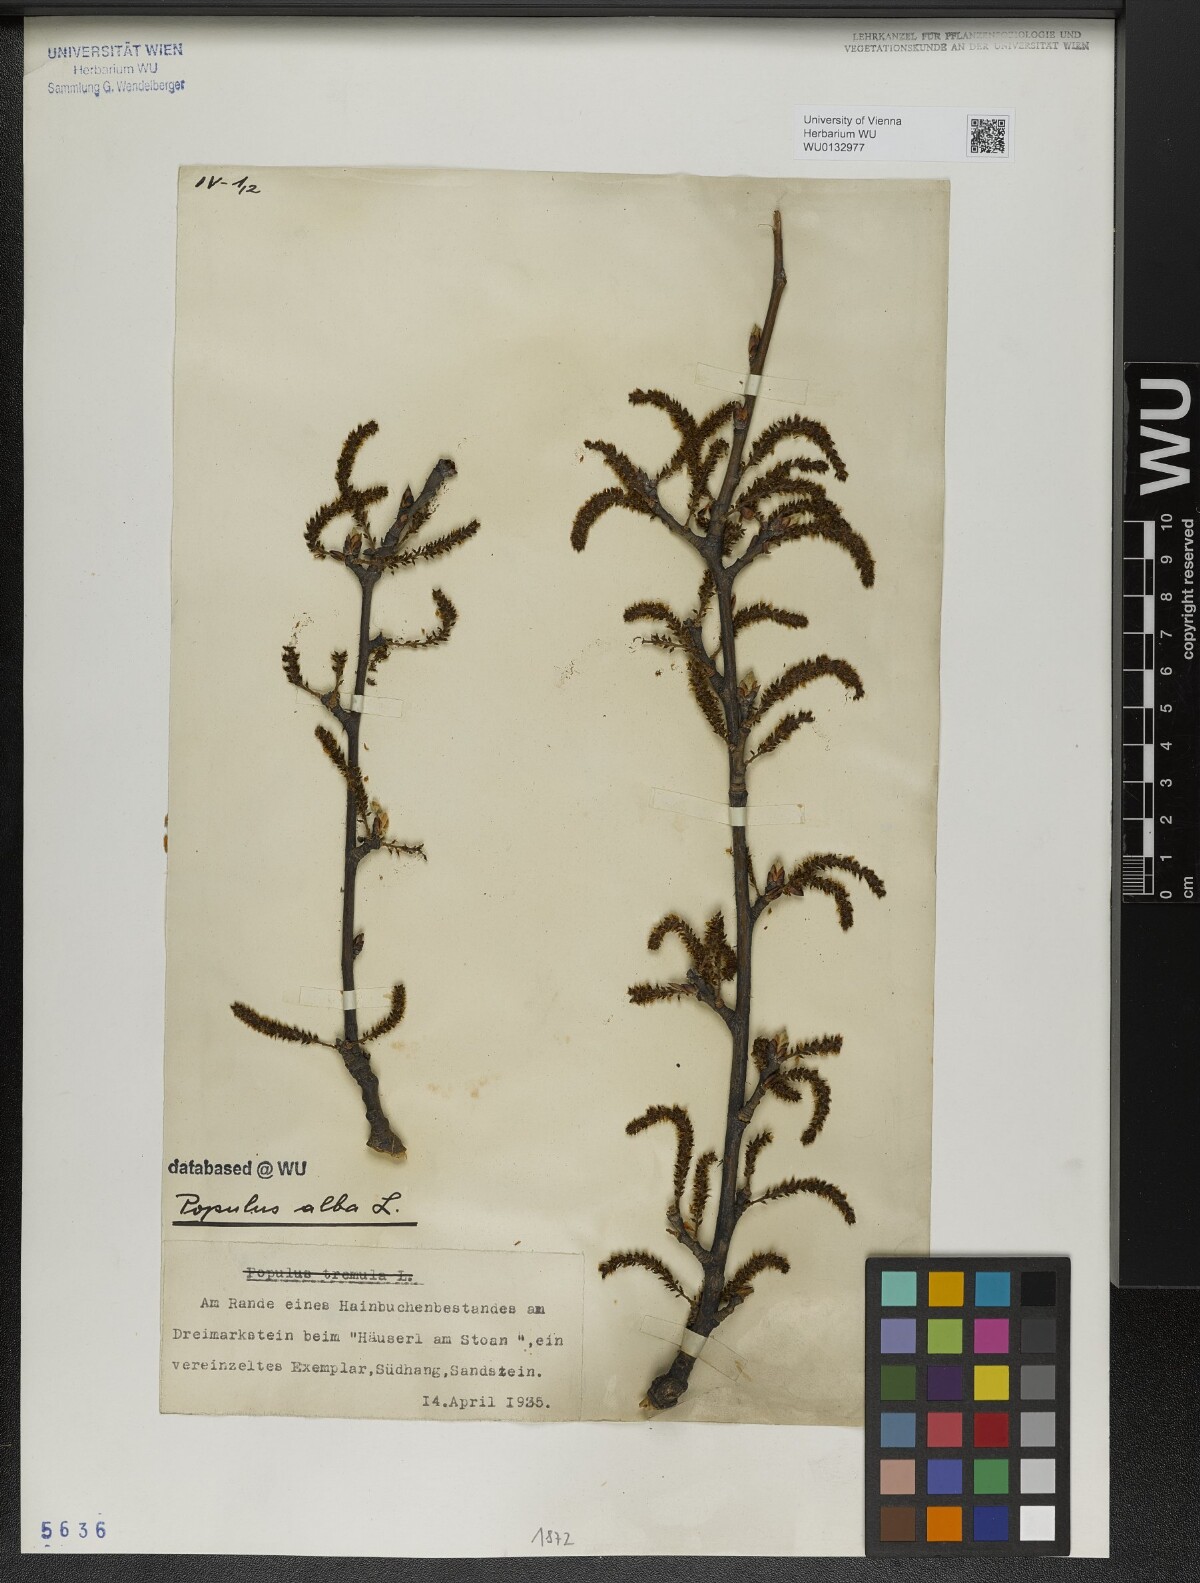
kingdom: Plantae
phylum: Tracheophyta
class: Magnoliopsida
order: Malpighiales
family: Salicaceae
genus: Populus
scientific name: Populus alba
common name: White poplar
